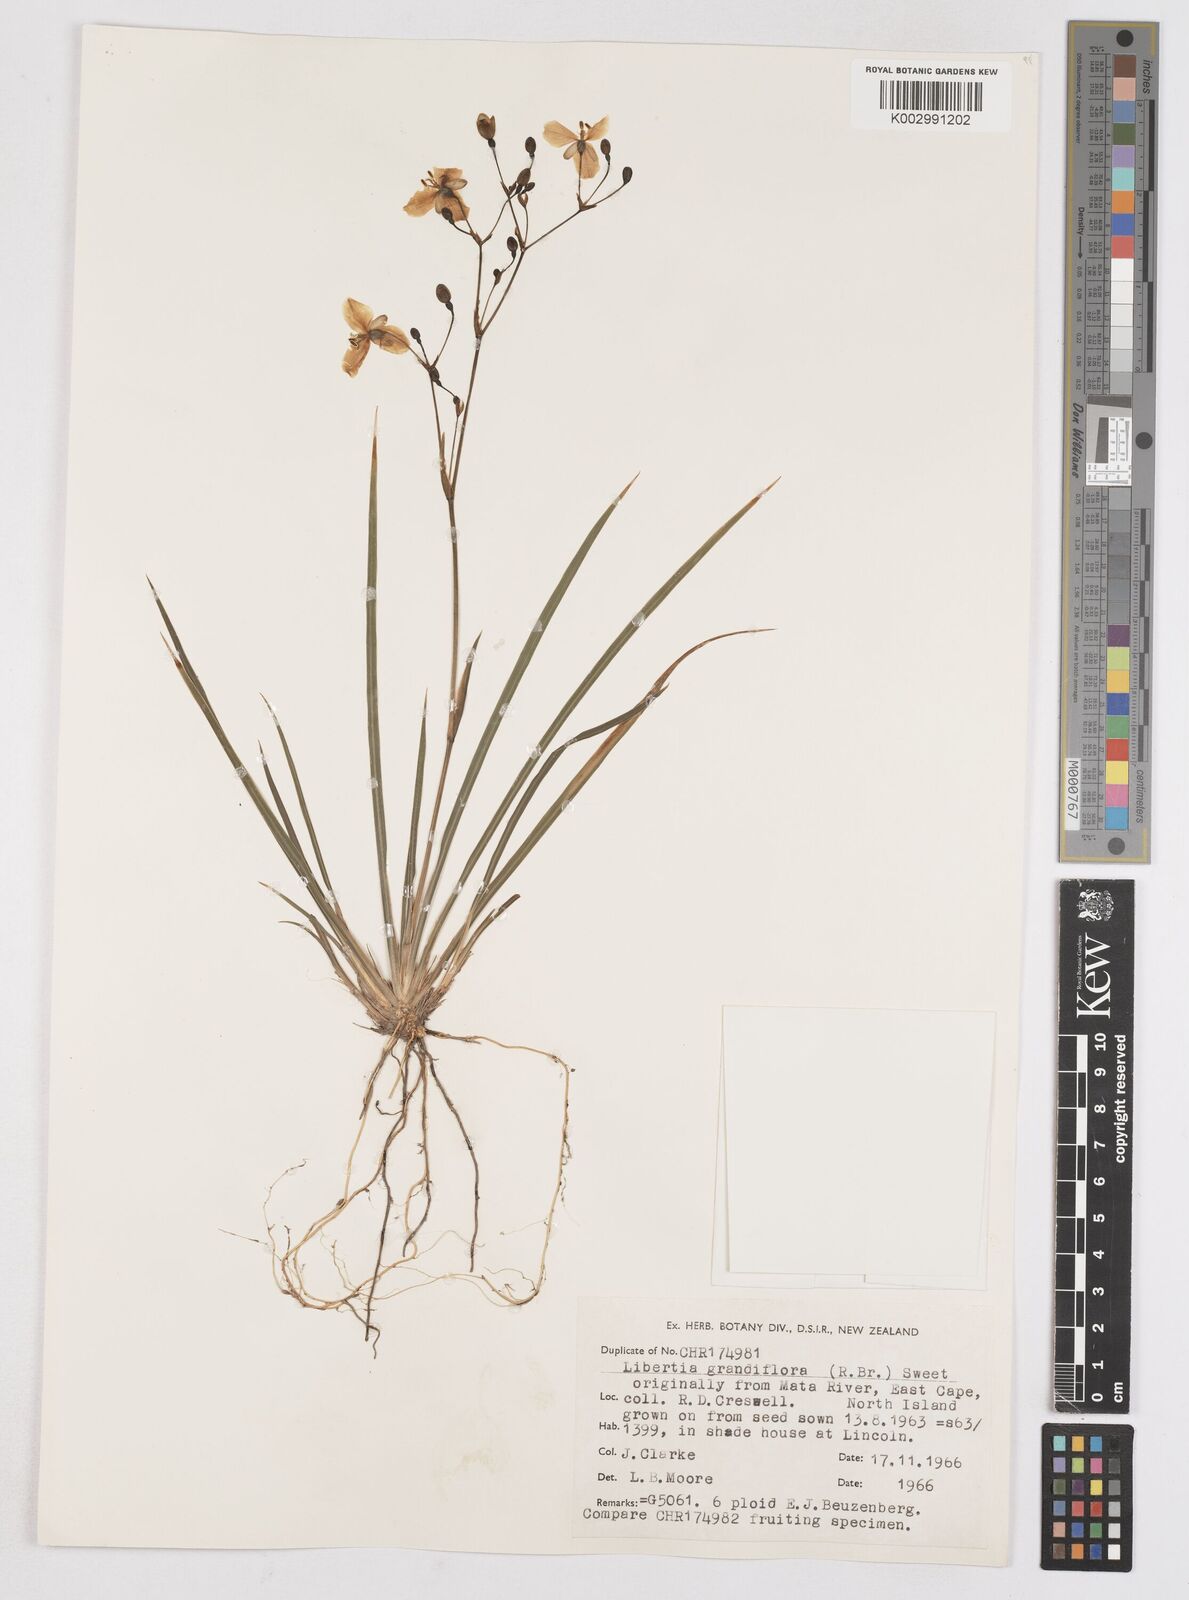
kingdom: Plantae
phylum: Tracheophyta
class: Liliopsida
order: Asparagales
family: Iridaceae
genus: Libertia
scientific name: Libertia grandiflora
